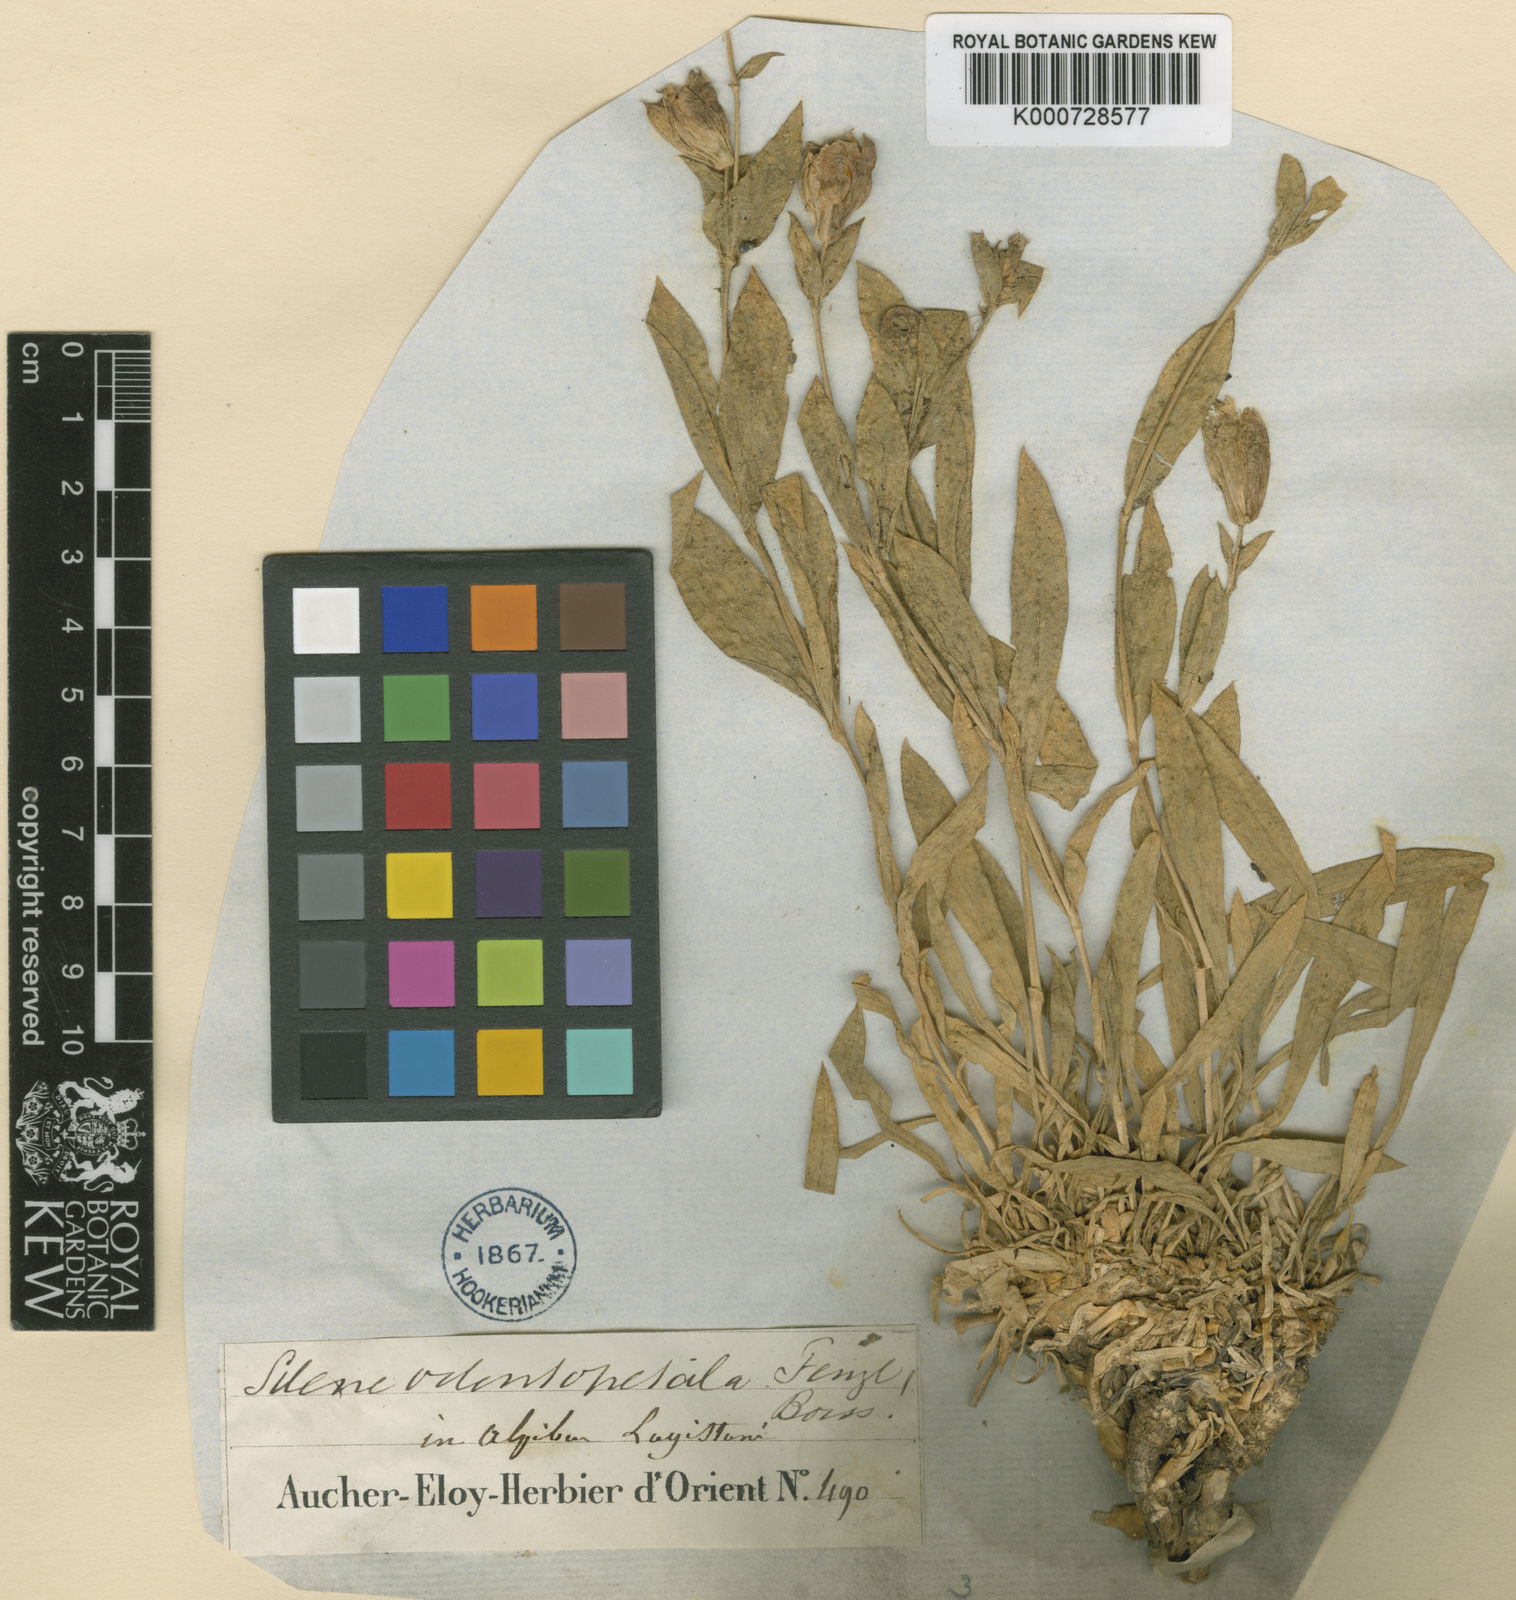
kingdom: Plantae
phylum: Tracheophyta
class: Magnoliopsida
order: Caryophyllales
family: Caryophyllaceae
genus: Silene
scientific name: Silene odontopetala
